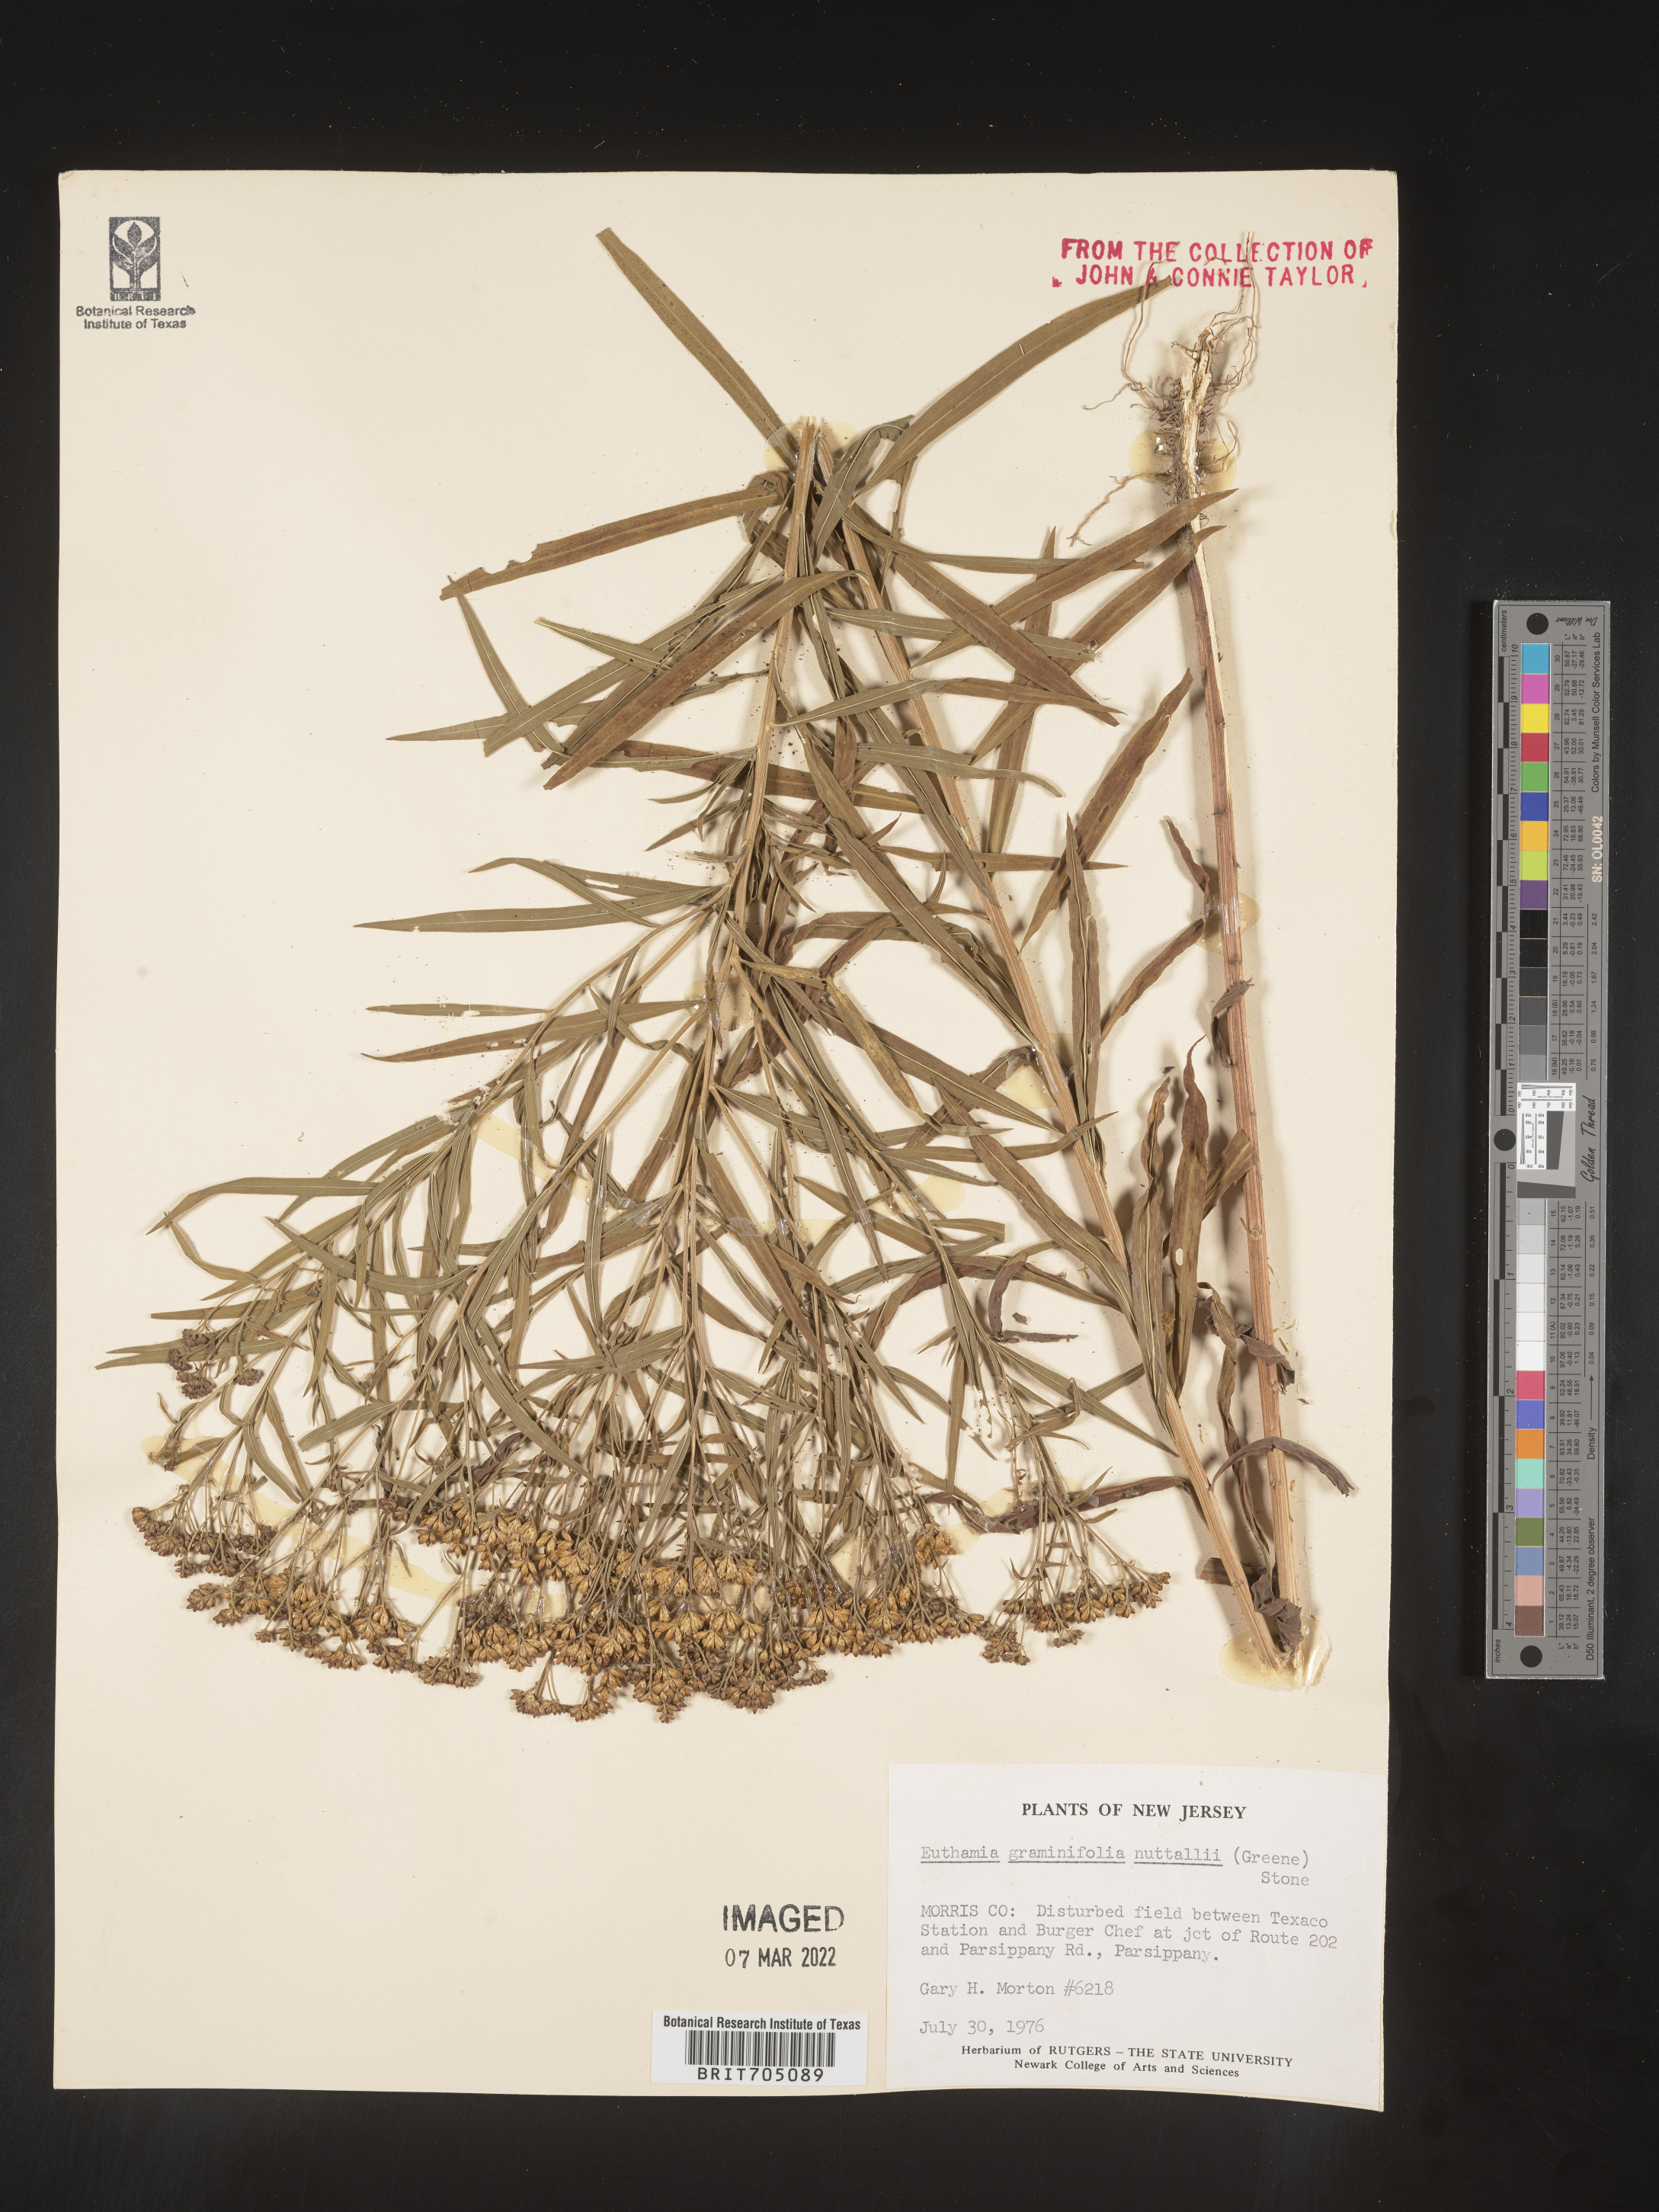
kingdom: Plantae
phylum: Tracheophyta
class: Magnoliopsida
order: Asterales
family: Asteraceae
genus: Euthamia
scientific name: Euthamia graminifolia
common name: Common goldentop
